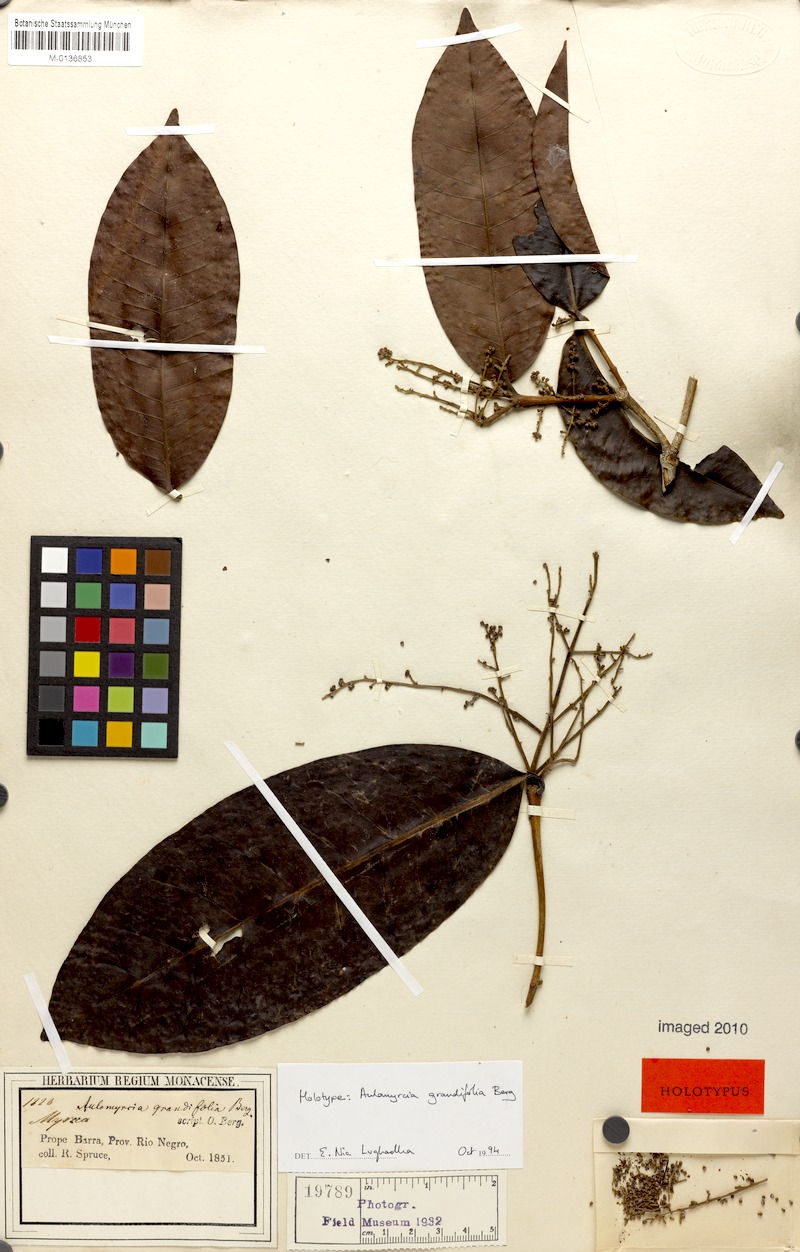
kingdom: Plantae
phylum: Tracheophyta
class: Magnoliopsida
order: Myrtales
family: Myrtaceae
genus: Myrcia
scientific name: Myrcia grandifolia
